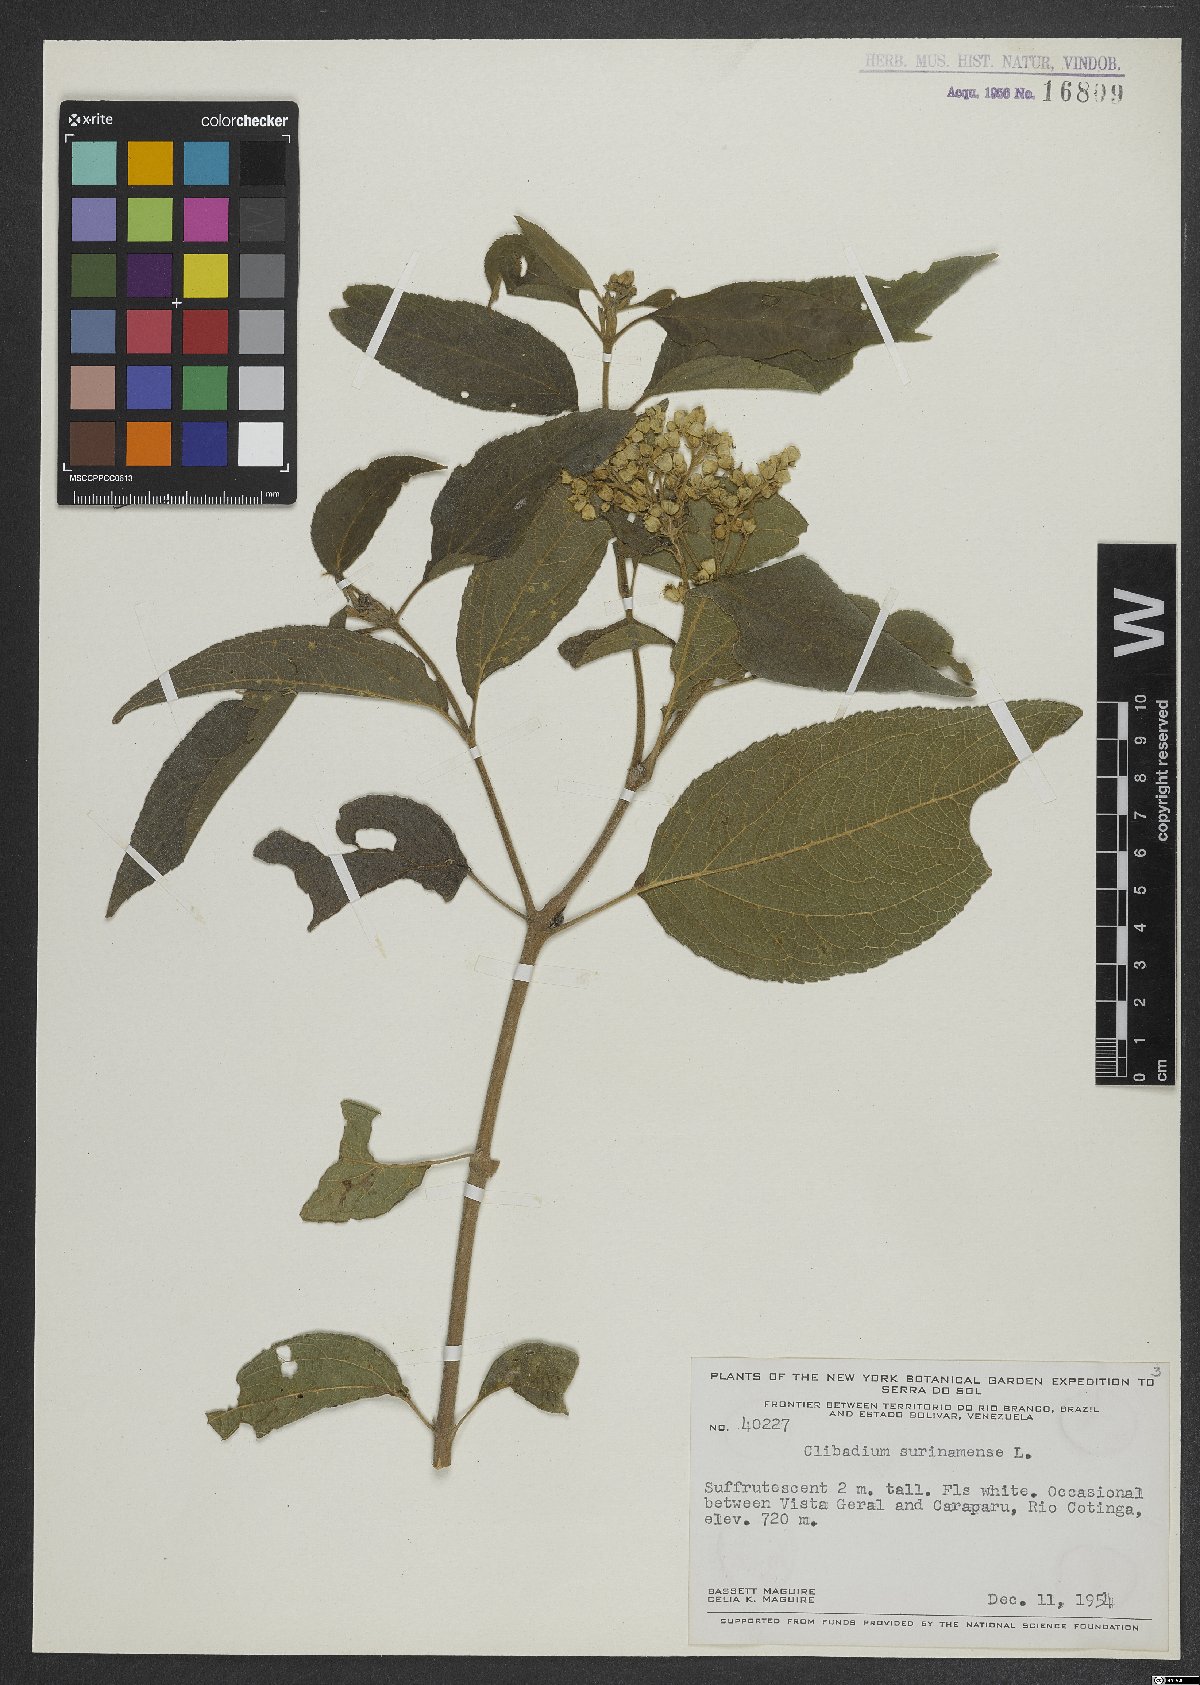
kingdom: Plantae
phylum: Tracheophyta
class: Magnoliopsida
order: Asterales
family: Asteraceae
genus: Clibadium
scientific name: Clibadium surinamense
